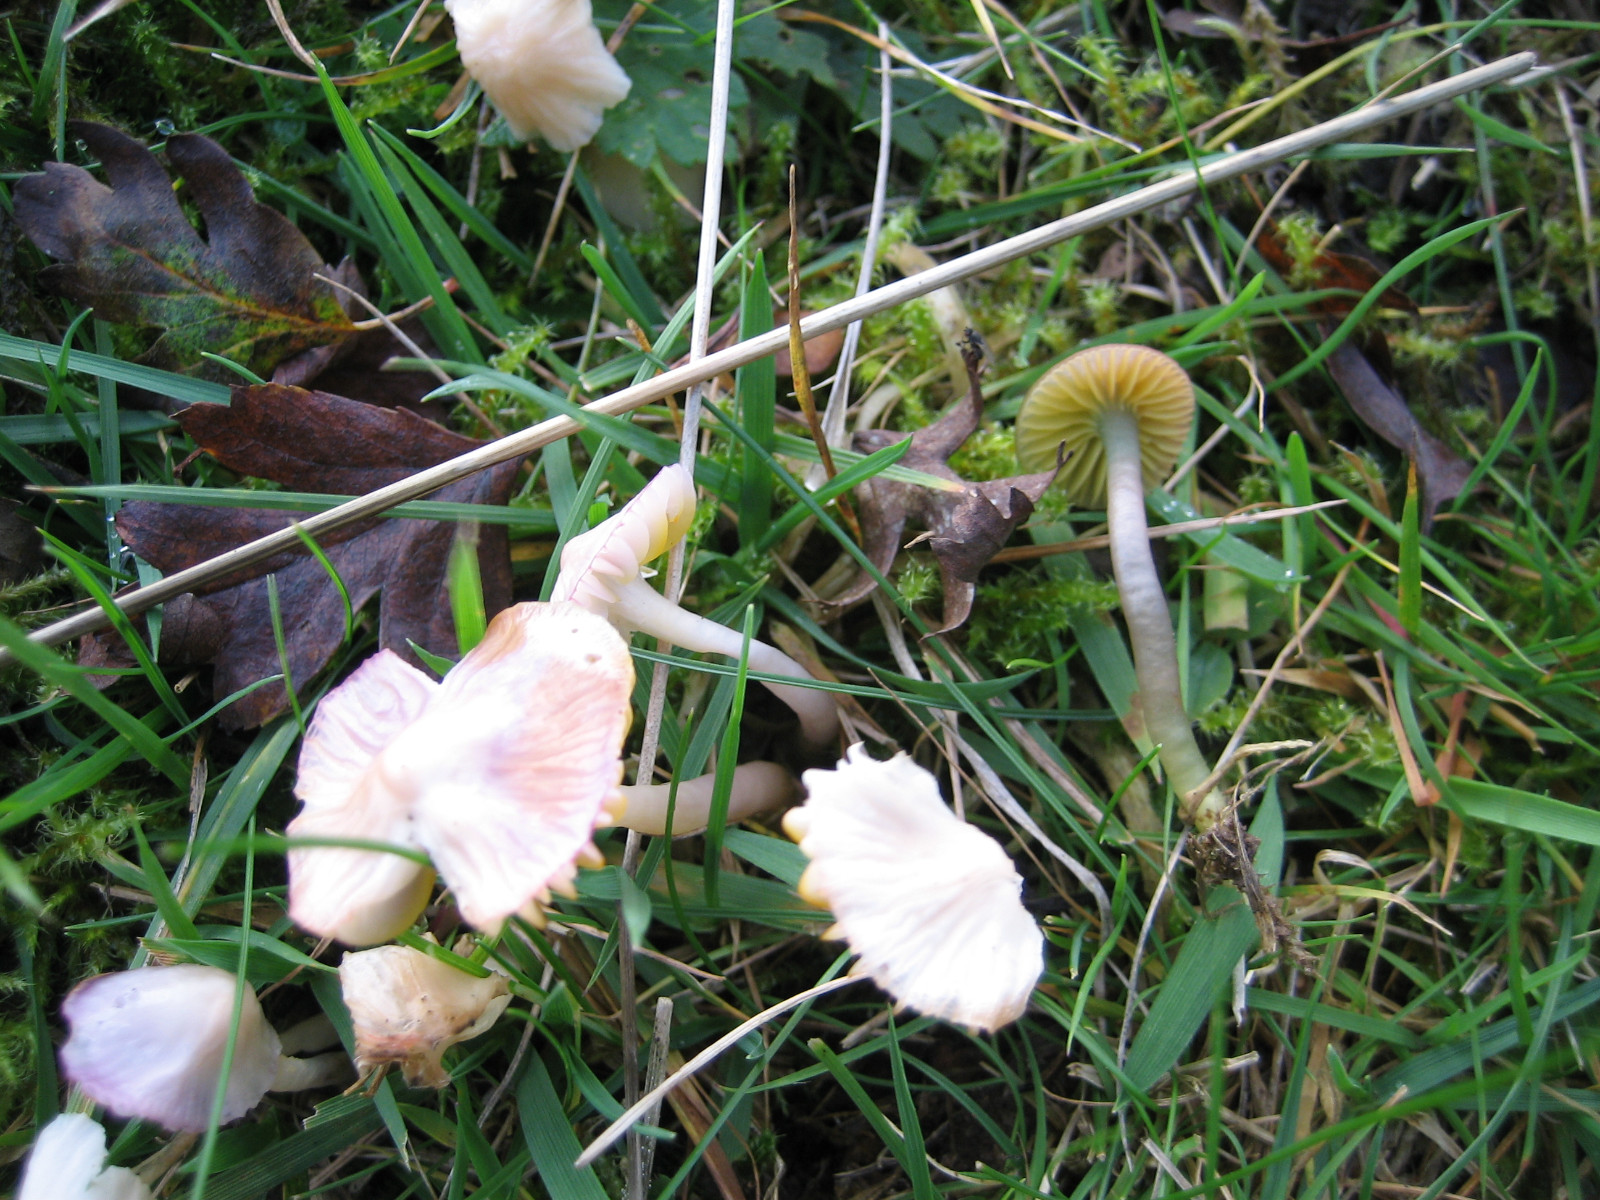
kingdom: Fungi
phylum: Basidiomycota
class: Agaricomycetes
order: Agaricales
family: Hygrophoraceae
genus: Gliophorus
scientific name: Gliophorus psittacinus
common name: papegøje-vokshat
